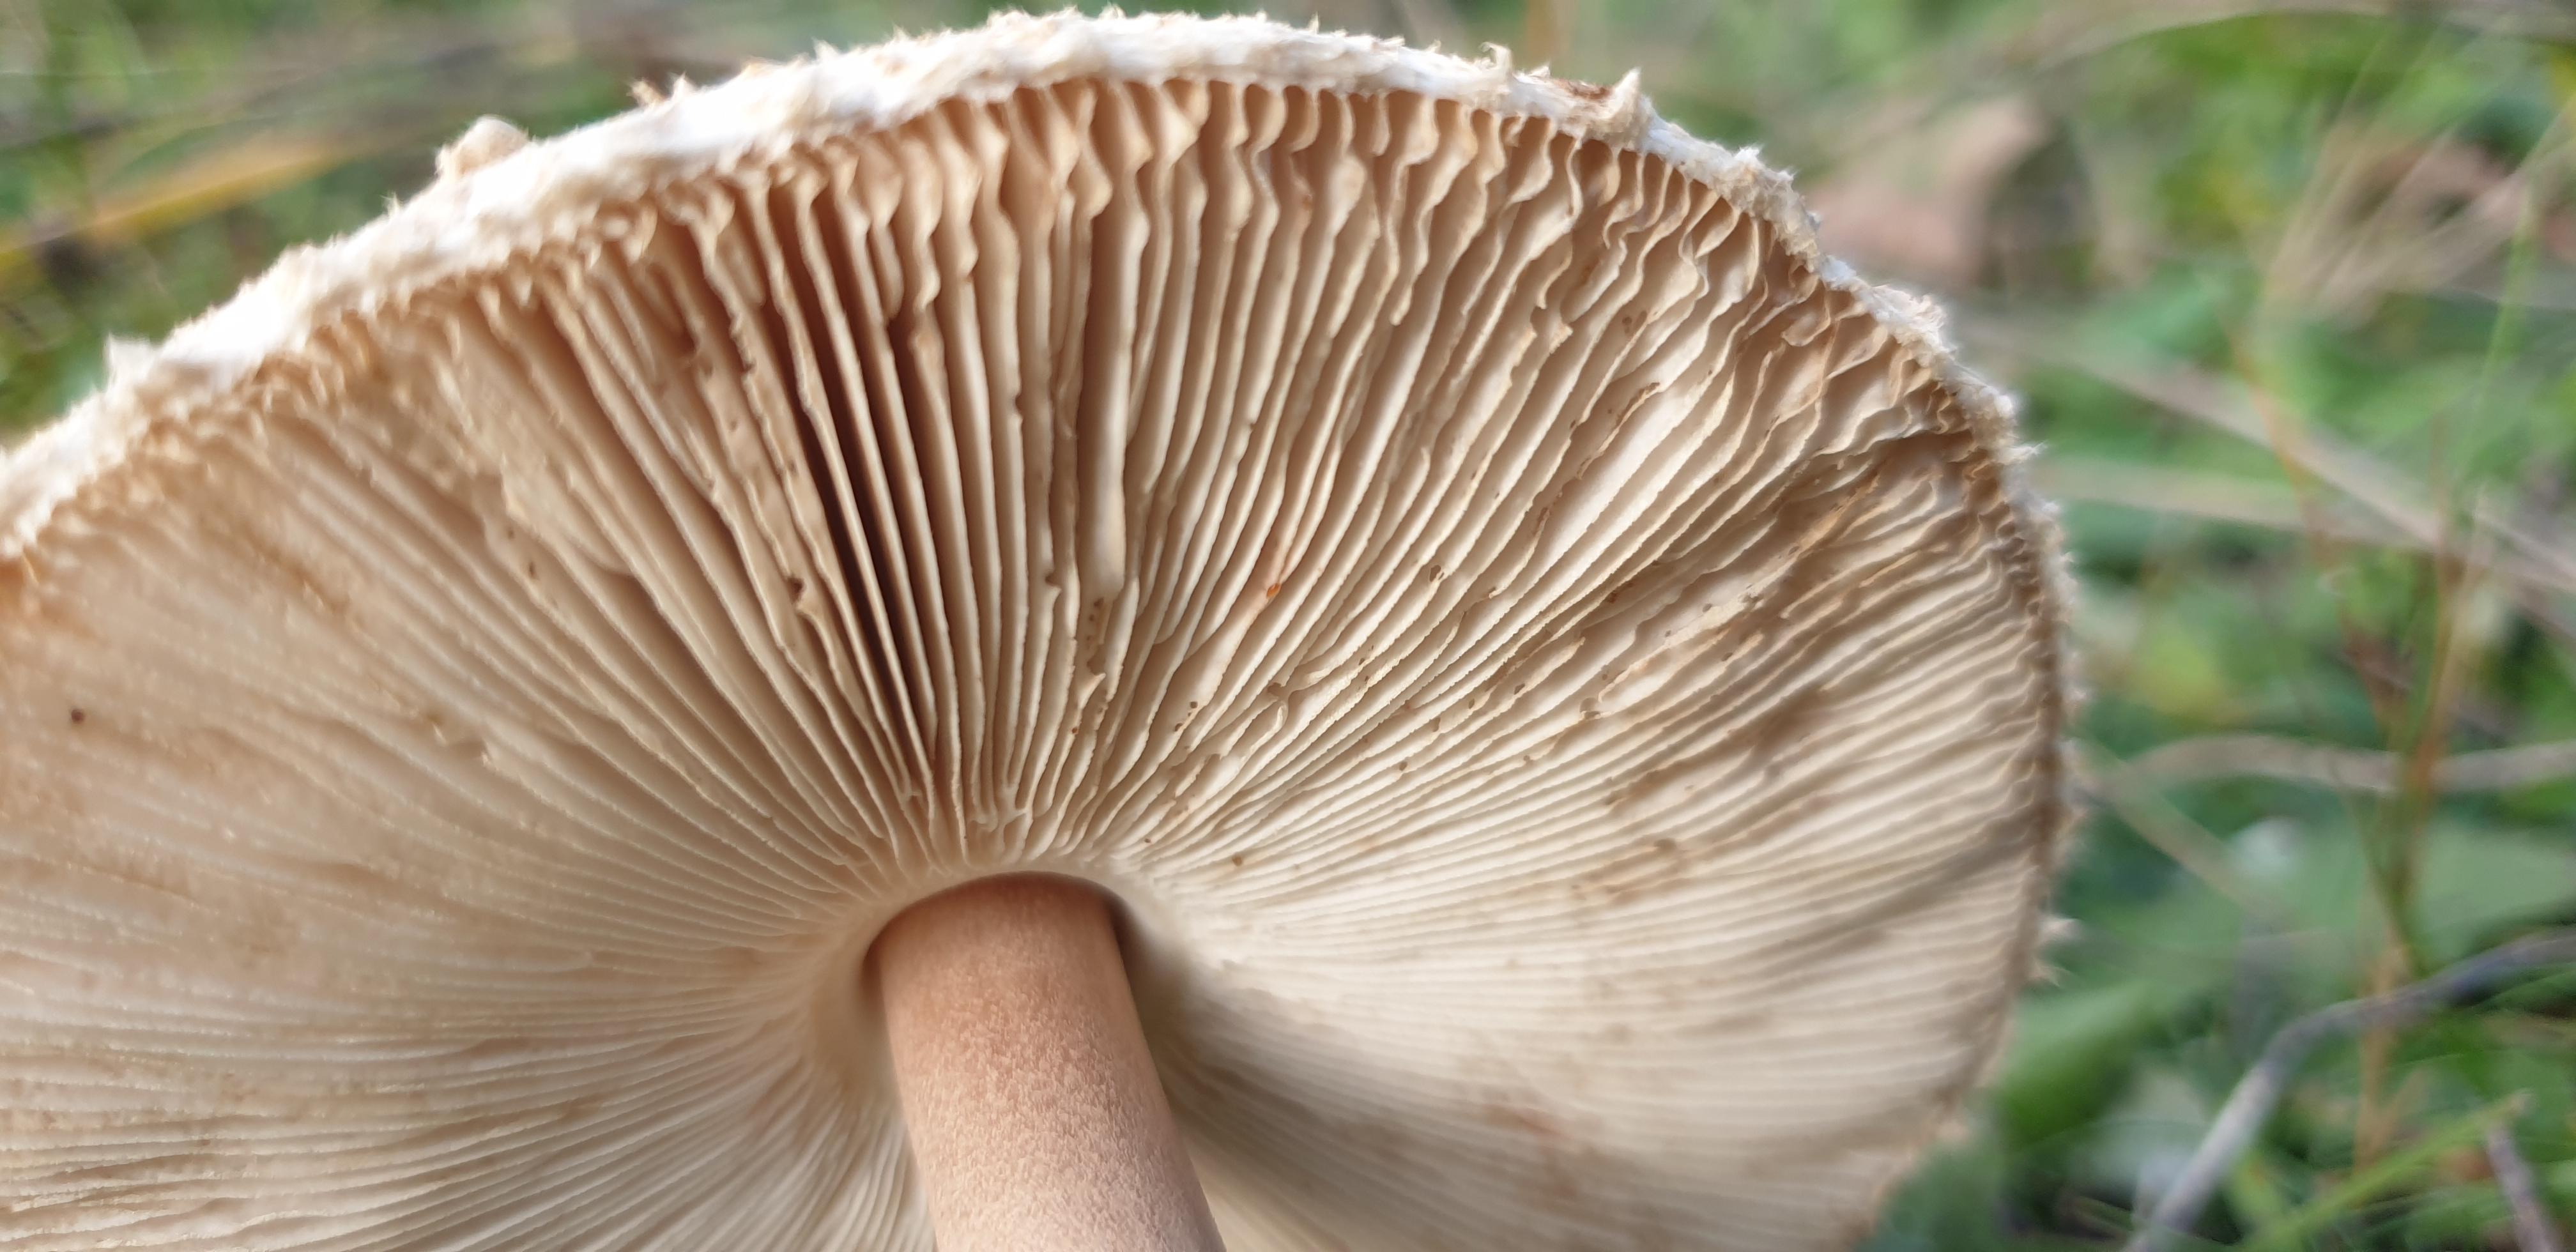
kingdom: Fungi
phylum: Basidiomycota
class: Agaricomycetes
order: Agaricales
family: Agaricaceae
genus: Macrolepiota
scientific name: Macrolepiota
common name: kæmpeparasolhat
